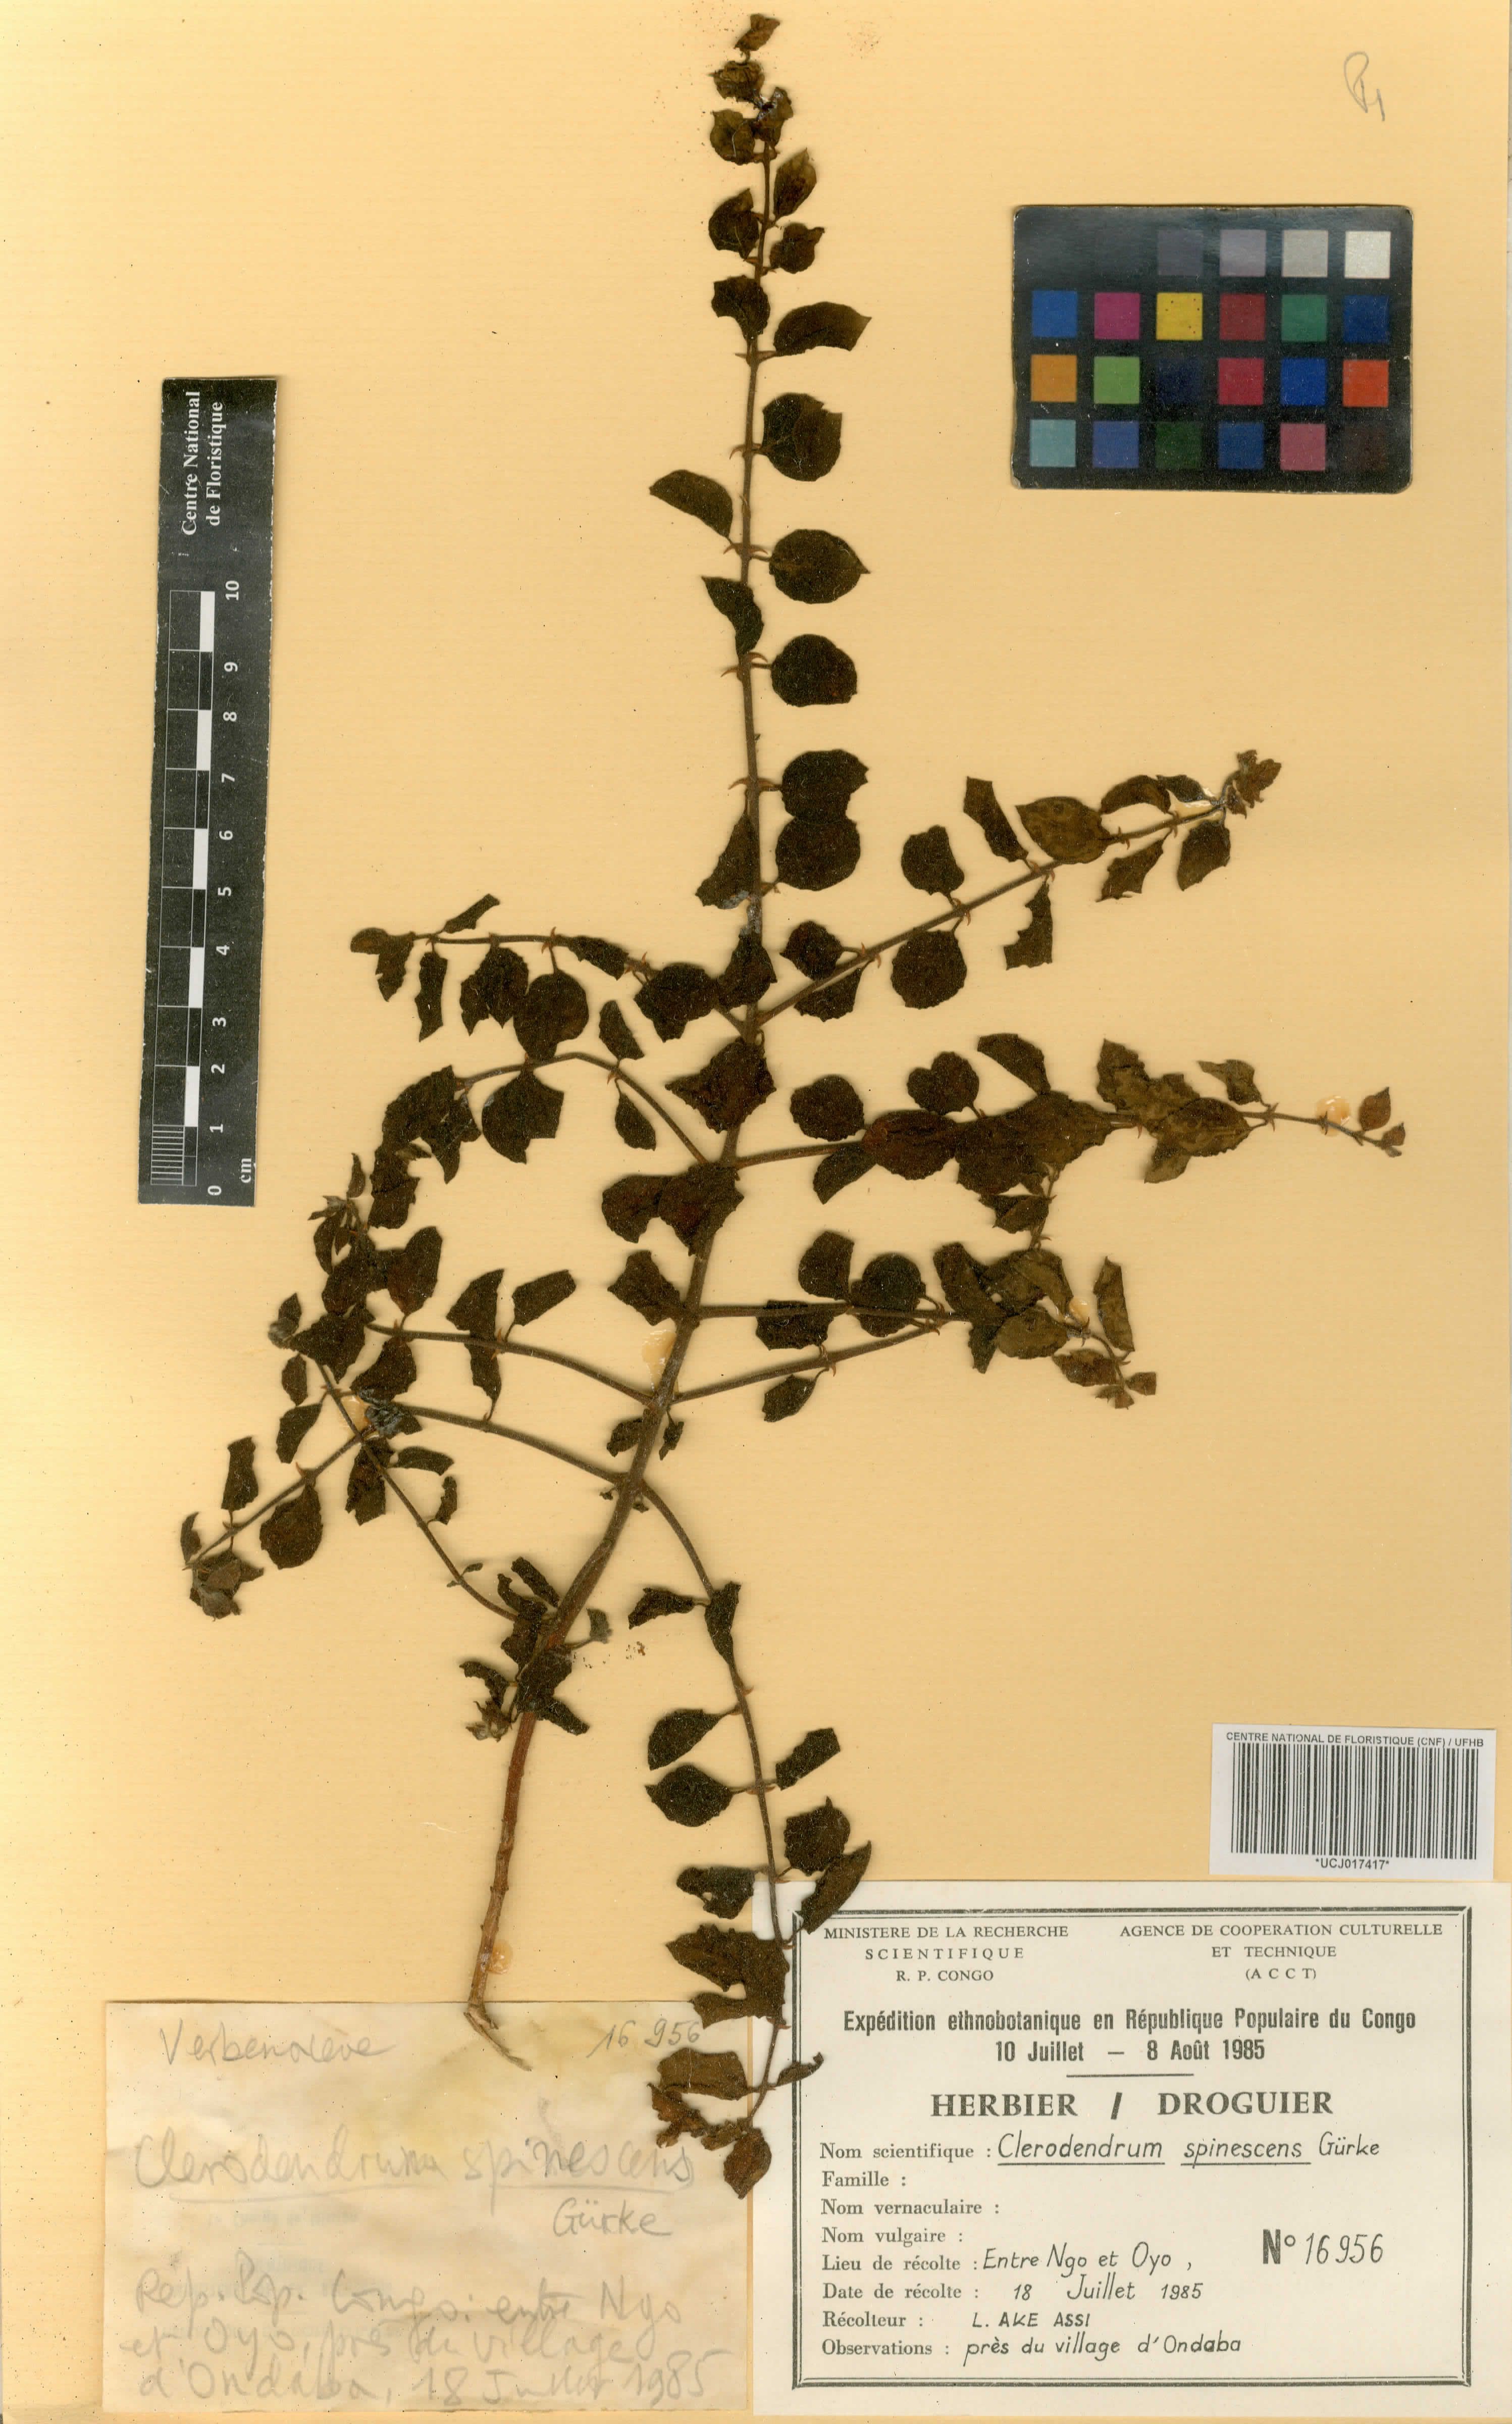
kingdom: Plantae
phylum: Tracheophyta
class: Magnoliopsida
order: Lamiales
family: Lamiaceae
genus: Kalaharia
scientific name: Kalaharia uncinata
